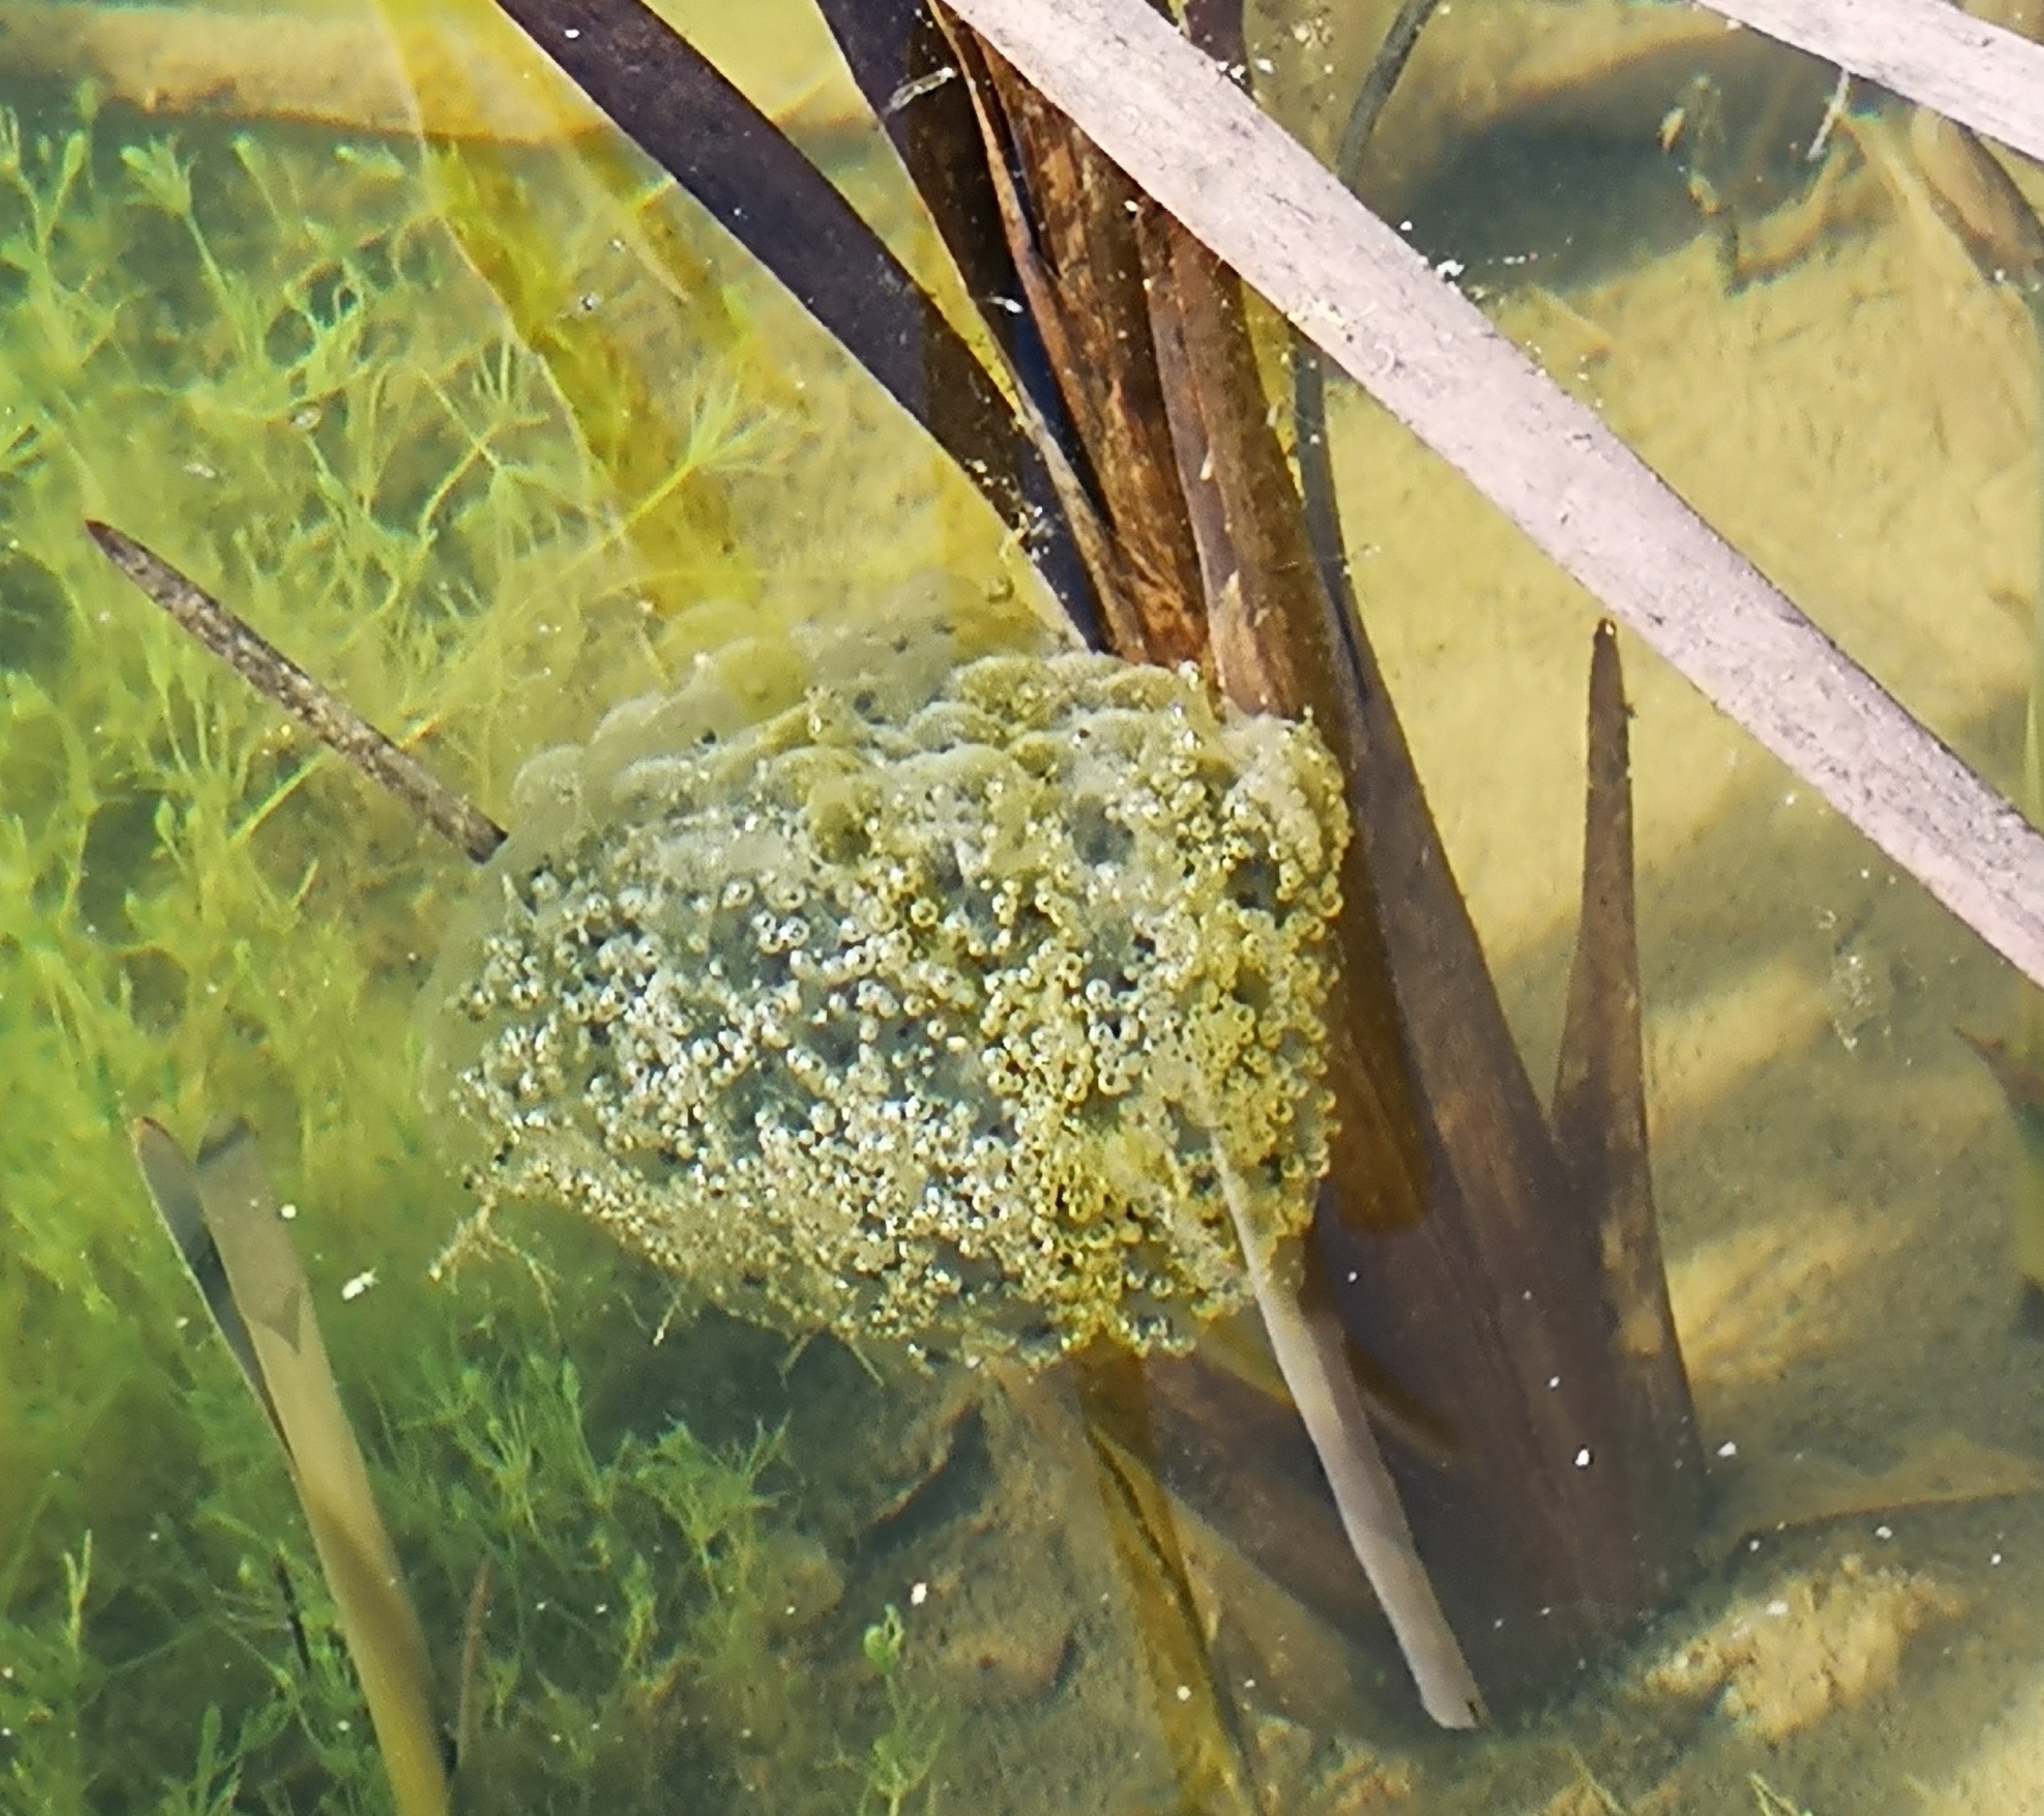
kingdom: Animalia
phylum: Chordata
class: Amphibia
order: Caudata
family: Salamandridae
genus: Lissotriton
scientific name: Lissotriton vulgaris
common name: Lille vandsalamander
